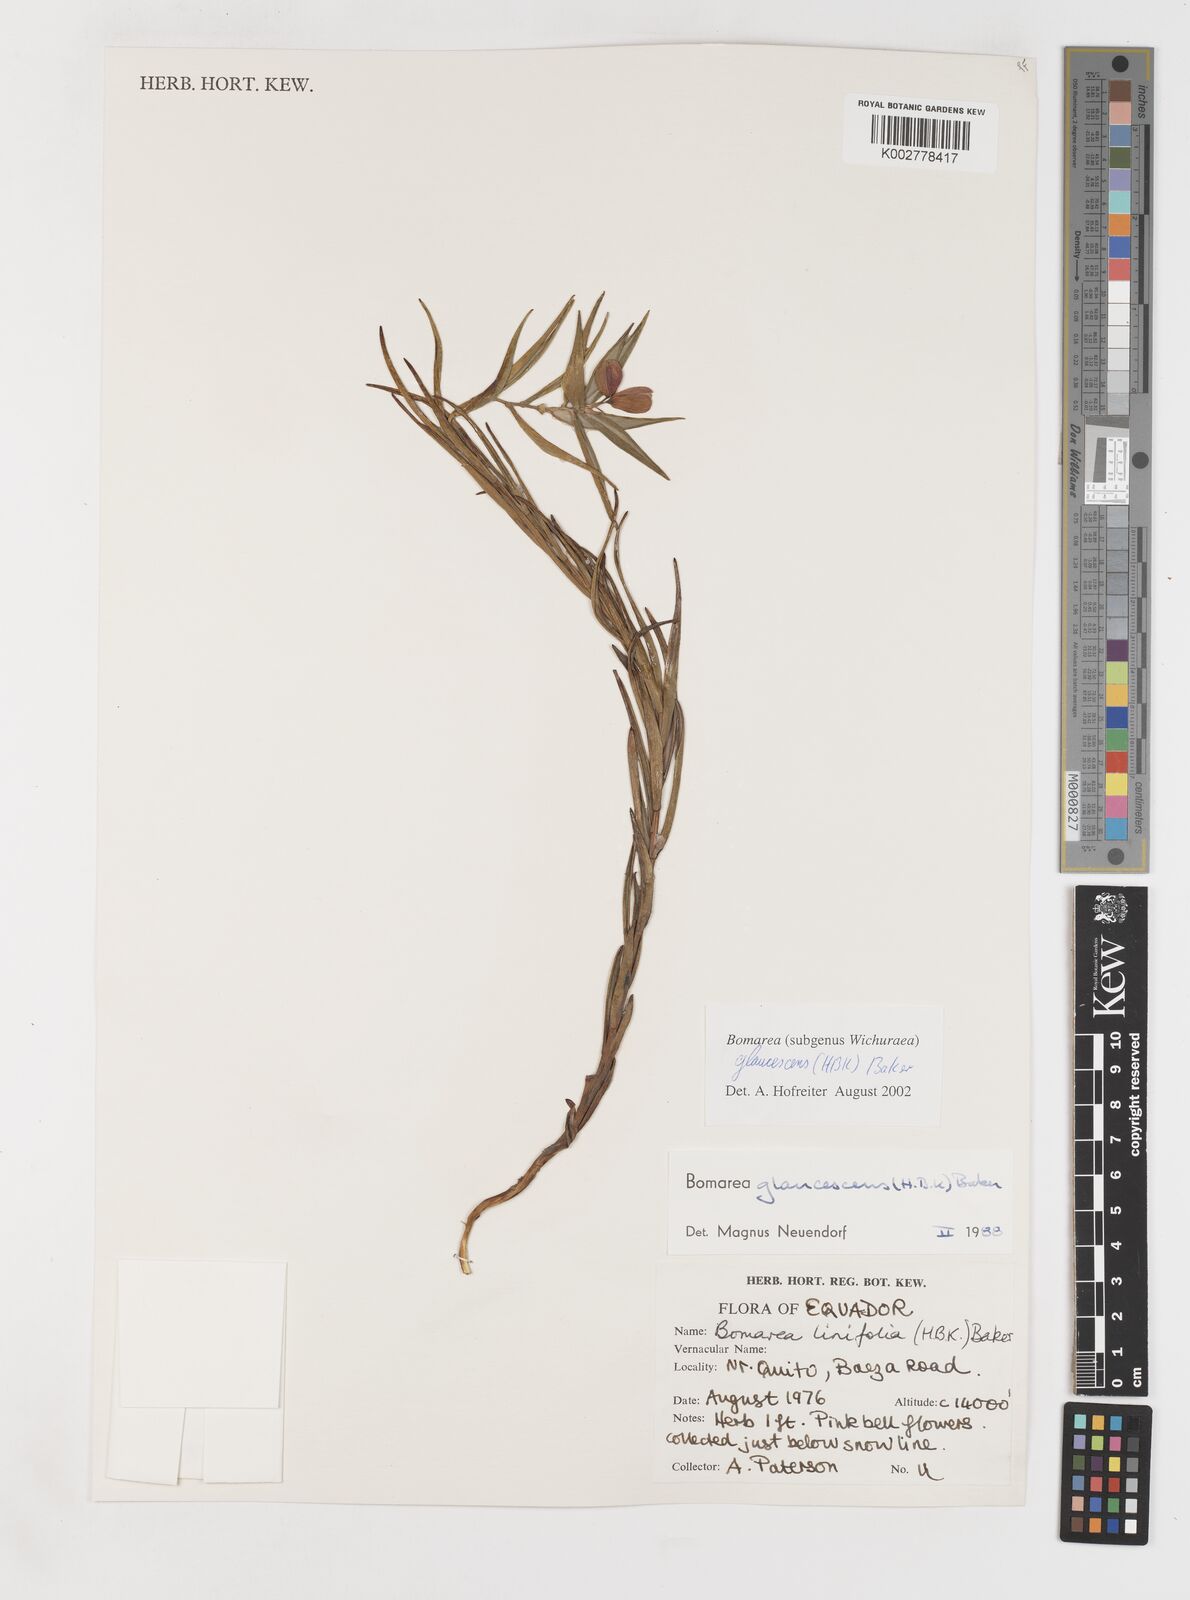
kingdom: Plantae
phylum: Tracheophyta
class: Liliopsida
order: Liliales
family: Alstroemeriaceae
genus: Bomarea
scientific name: Bomarea glaucescens
